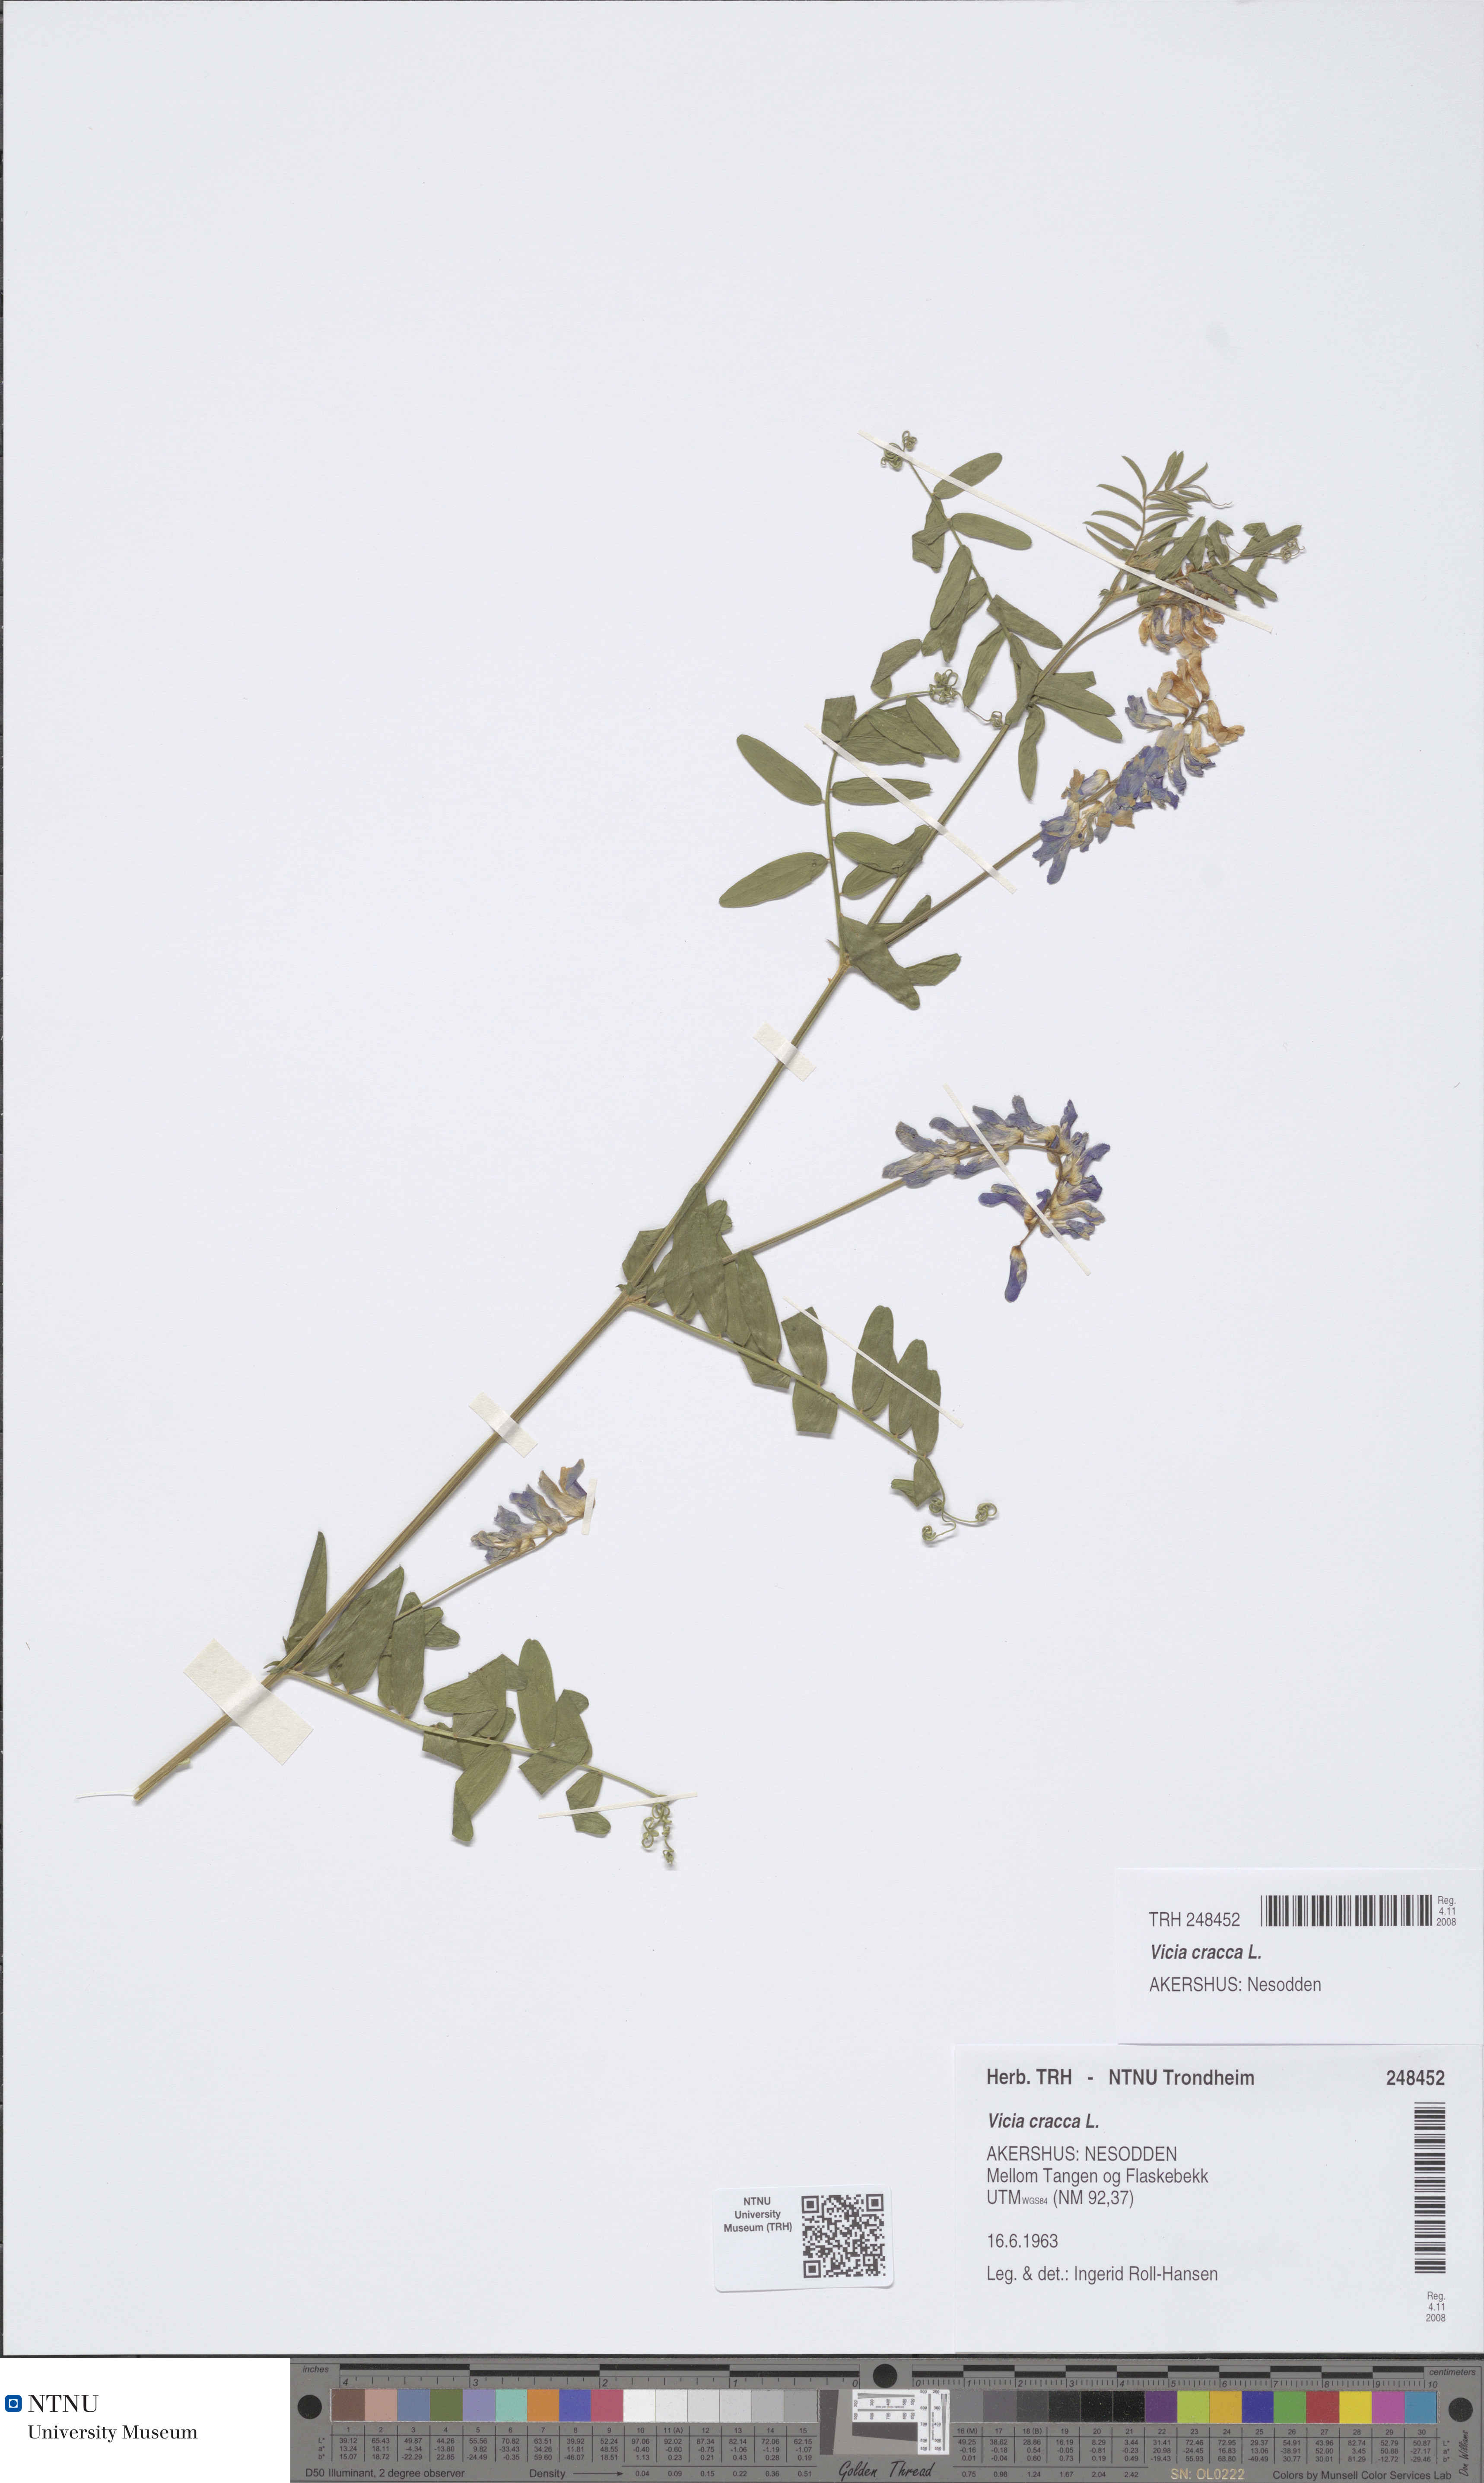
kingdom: Plantae
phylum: Tracheophyta
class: Magnoliopsida
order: Fabales
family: Fabaceae
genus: Vicia
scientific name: Vicia cracca
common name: Bird vetch
